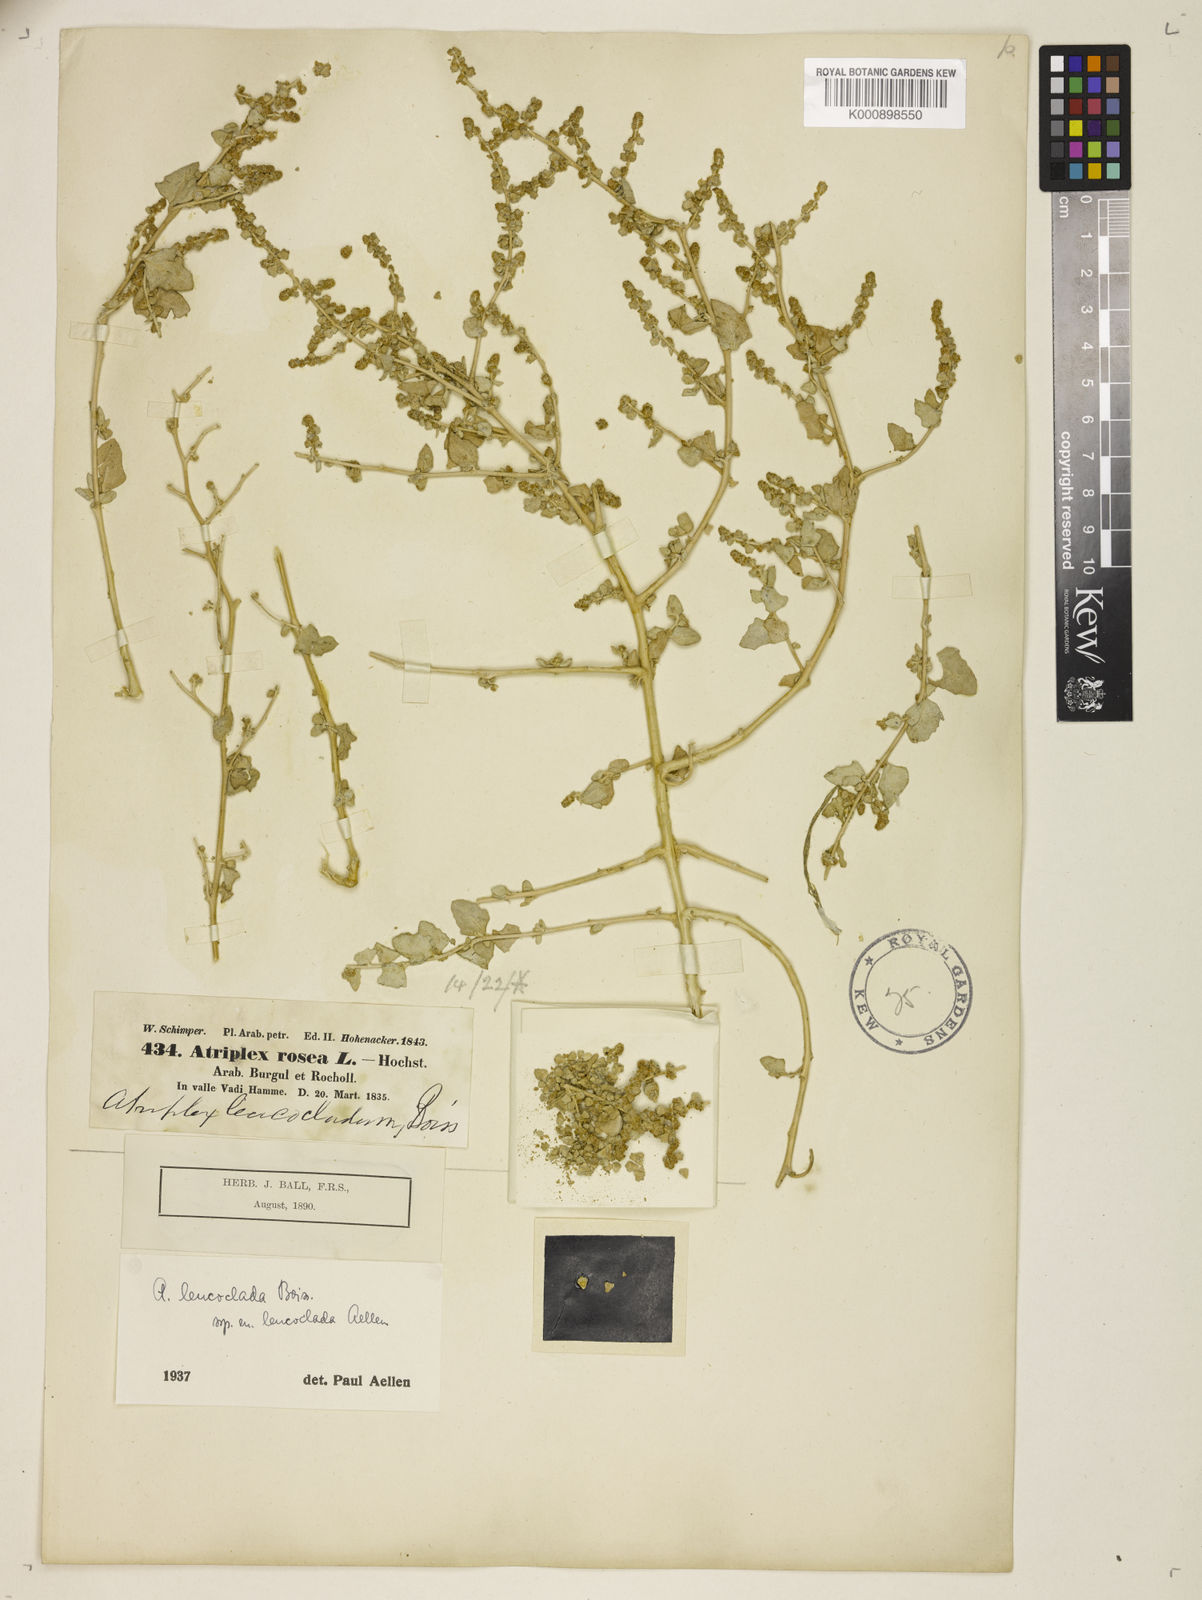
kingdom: Plantae
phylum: Tracheophyta
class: Magnoliopsida
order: Caryophyllales
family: Amaranthaceae
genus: Atriplex
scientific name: Atriplex turcomanica
